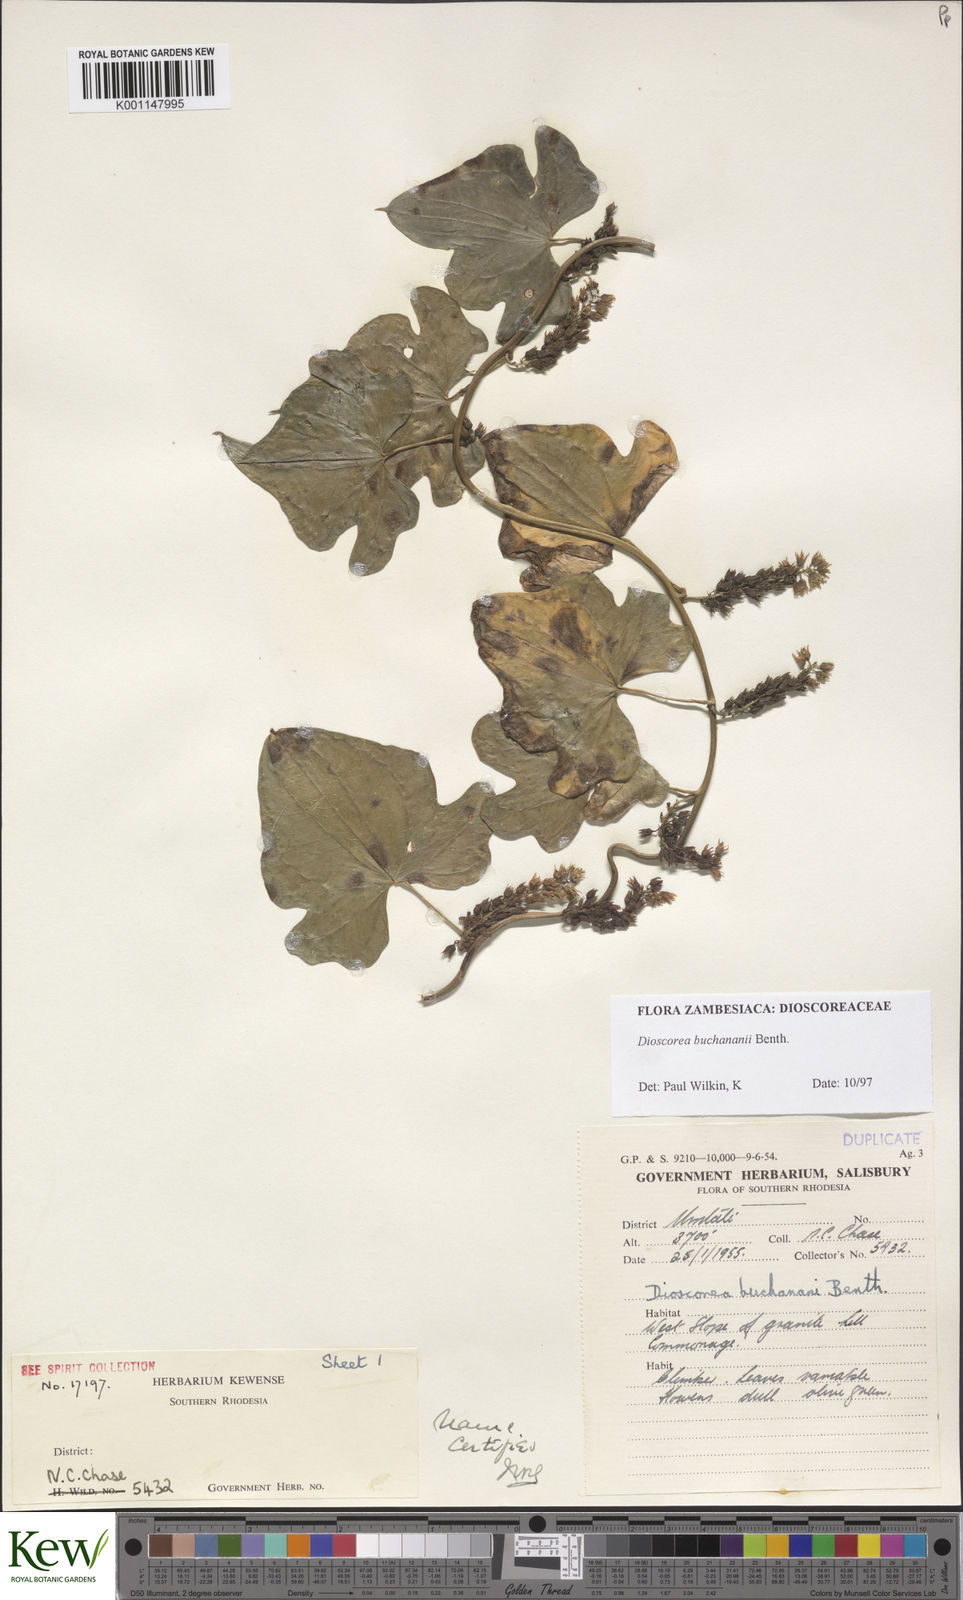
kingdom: Plantae
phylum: Tracheophyta
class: Liliopsida
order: Dioscoreales
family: Dioscoreaceae
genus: Dioscorea
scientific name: Dioscorea buchananii
